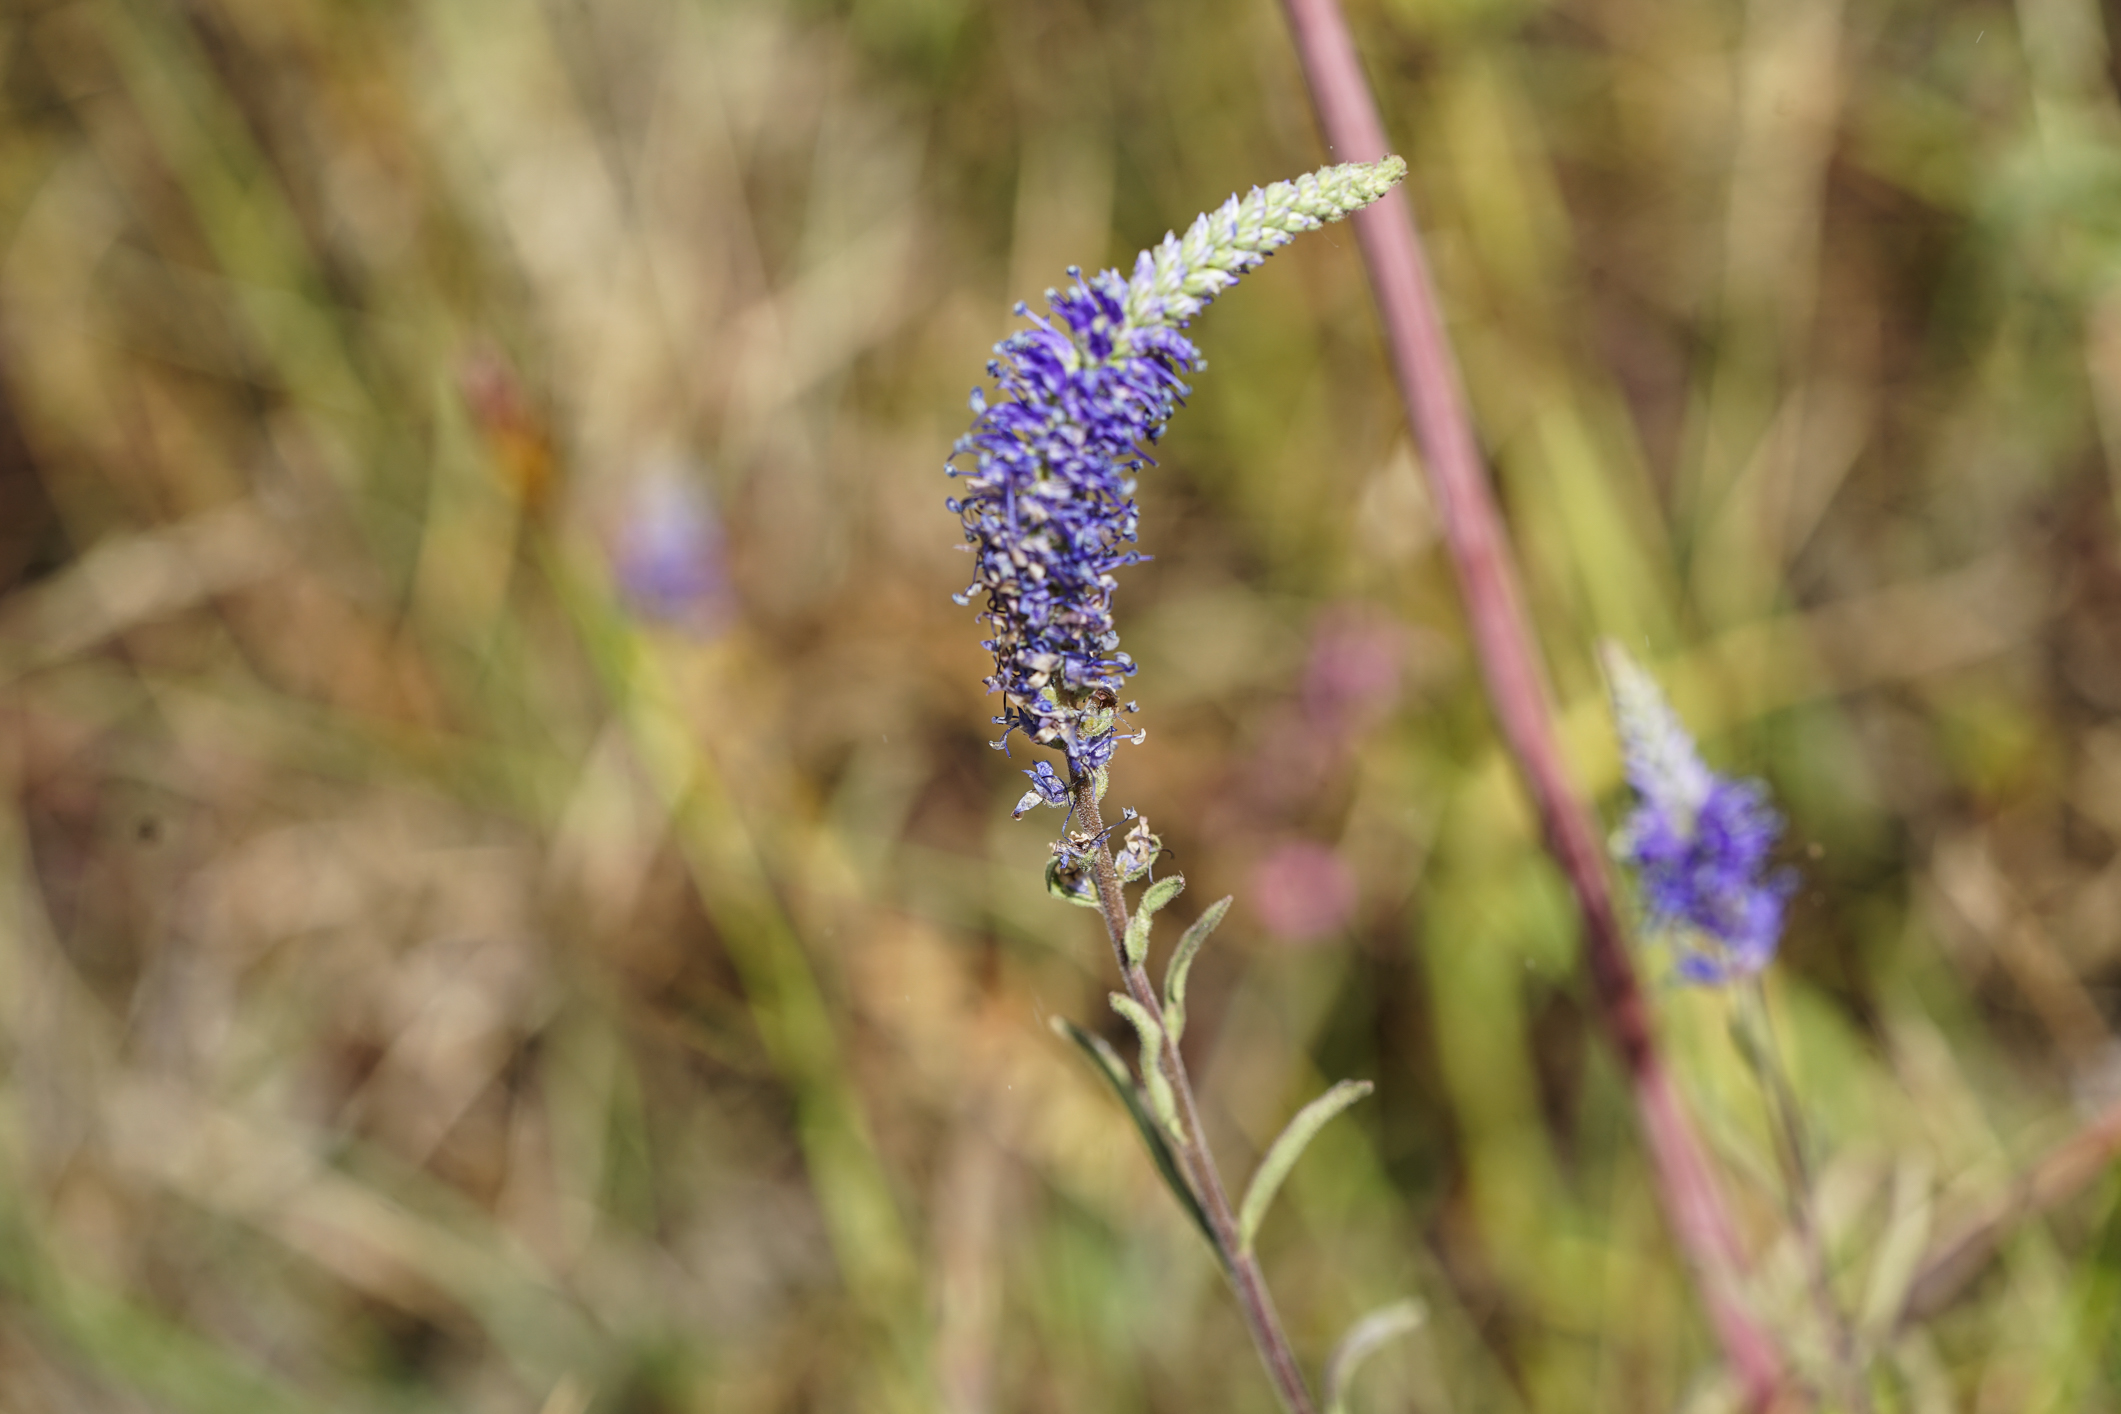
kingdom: Plantae
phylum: Tracheophyta
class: Magnoliopsida
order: Lamiales
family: Plantaginaceae
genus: Veronica
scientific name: Veronica spicata
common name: Spiked speedwell
